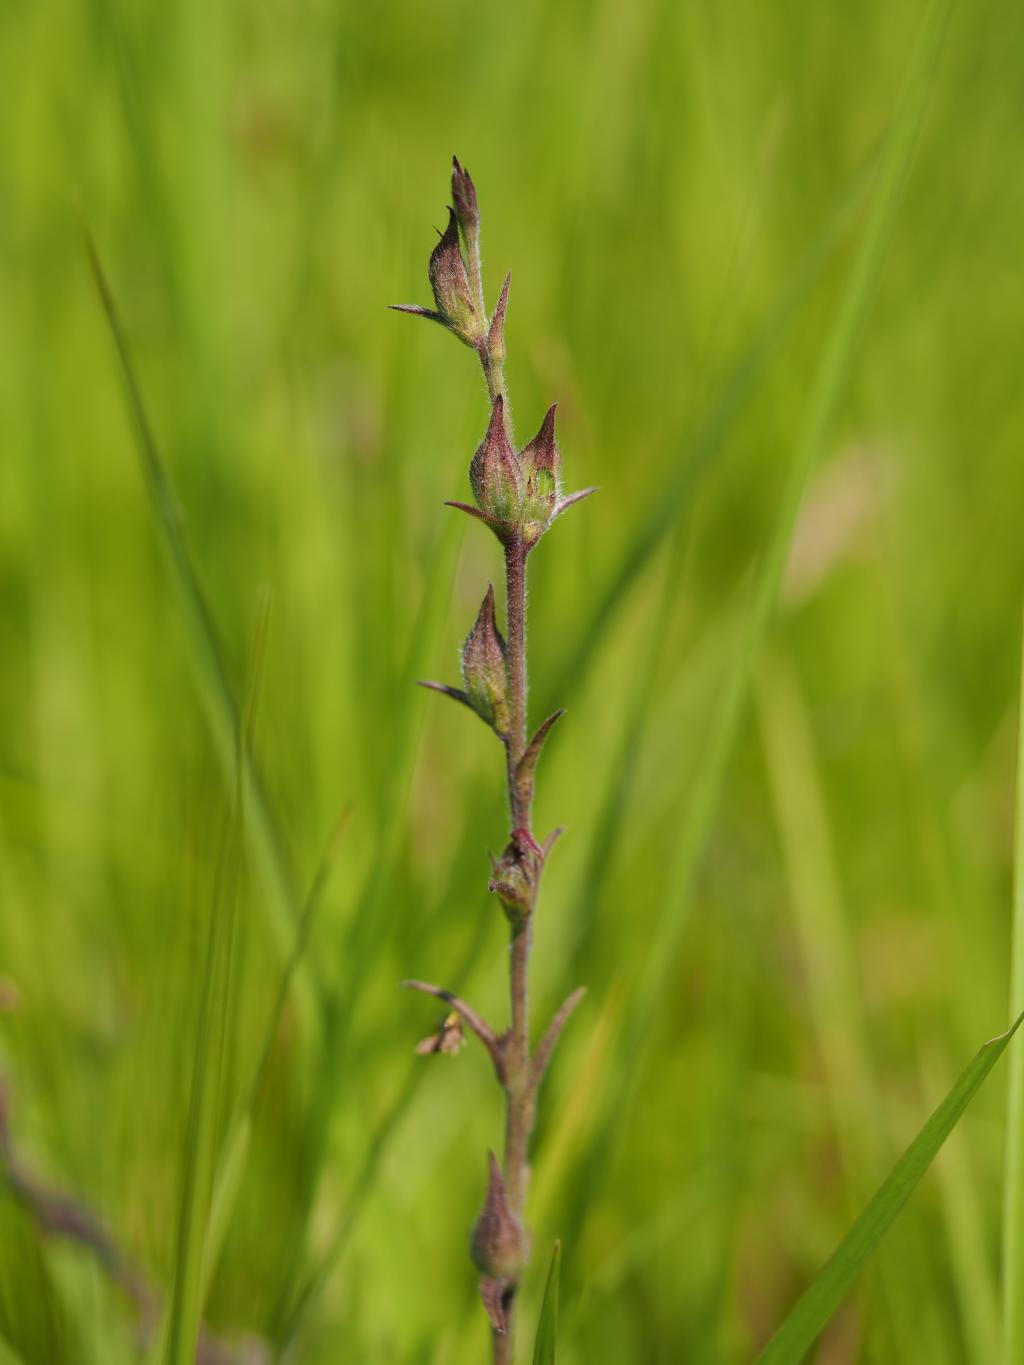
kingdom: Plantae
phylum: Tracheophyta
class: Magnoliopsida
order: Lamiales
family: Orobanchaceae
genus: Centranthera
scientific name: Centranthera cochinchinensis
